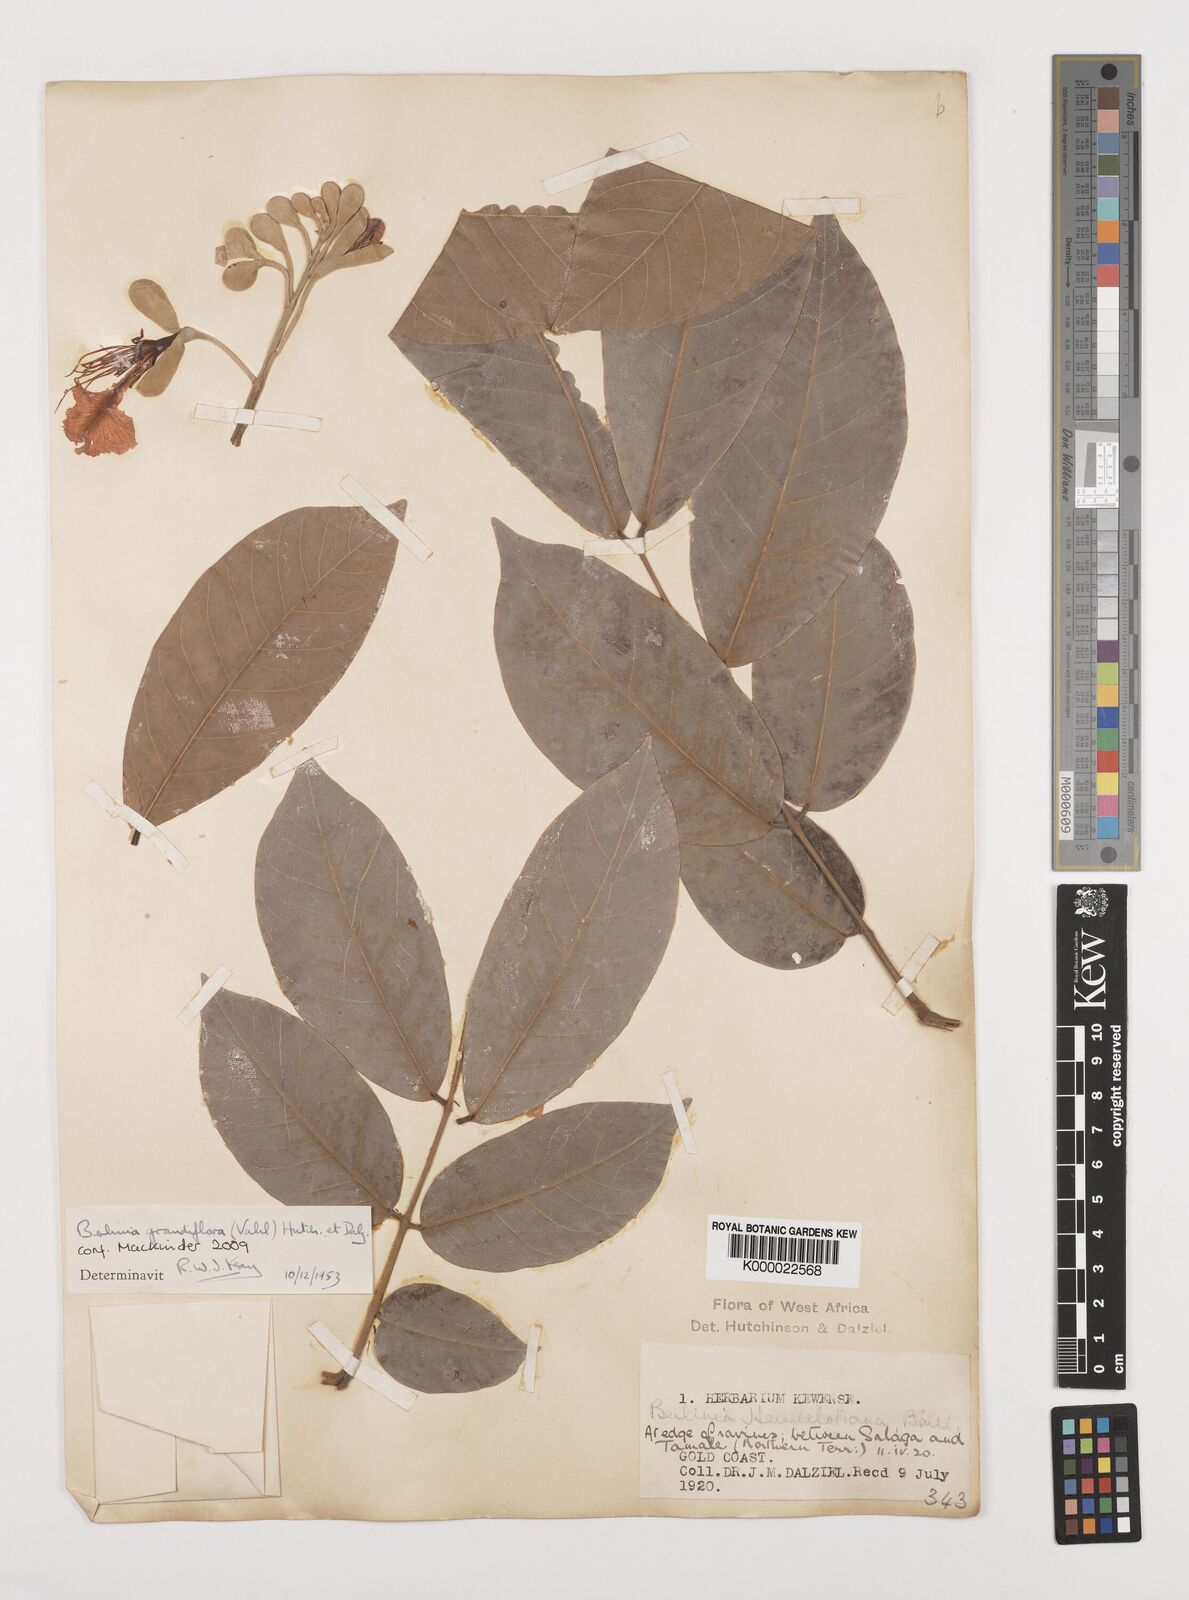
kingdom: Plantae
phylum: Tracheophyta
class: Magnoliopsida
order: Fabales
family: Fabaceae
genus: Berlinia
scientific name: Berlinia grandiflora
